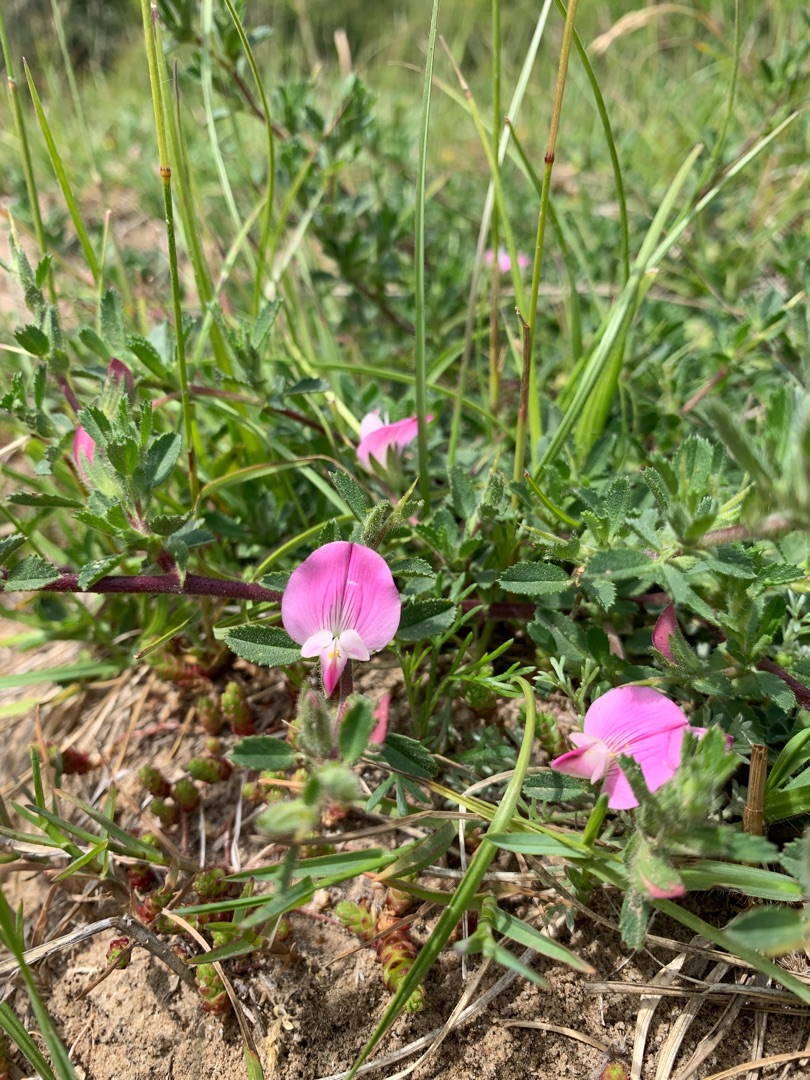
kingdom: Plantae
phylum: Tracheophyta
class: Magnoliopsida
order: Fabales
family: Fabaceae
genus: Ononis
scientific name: Ononis spinosa
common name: Strand-krageklo
